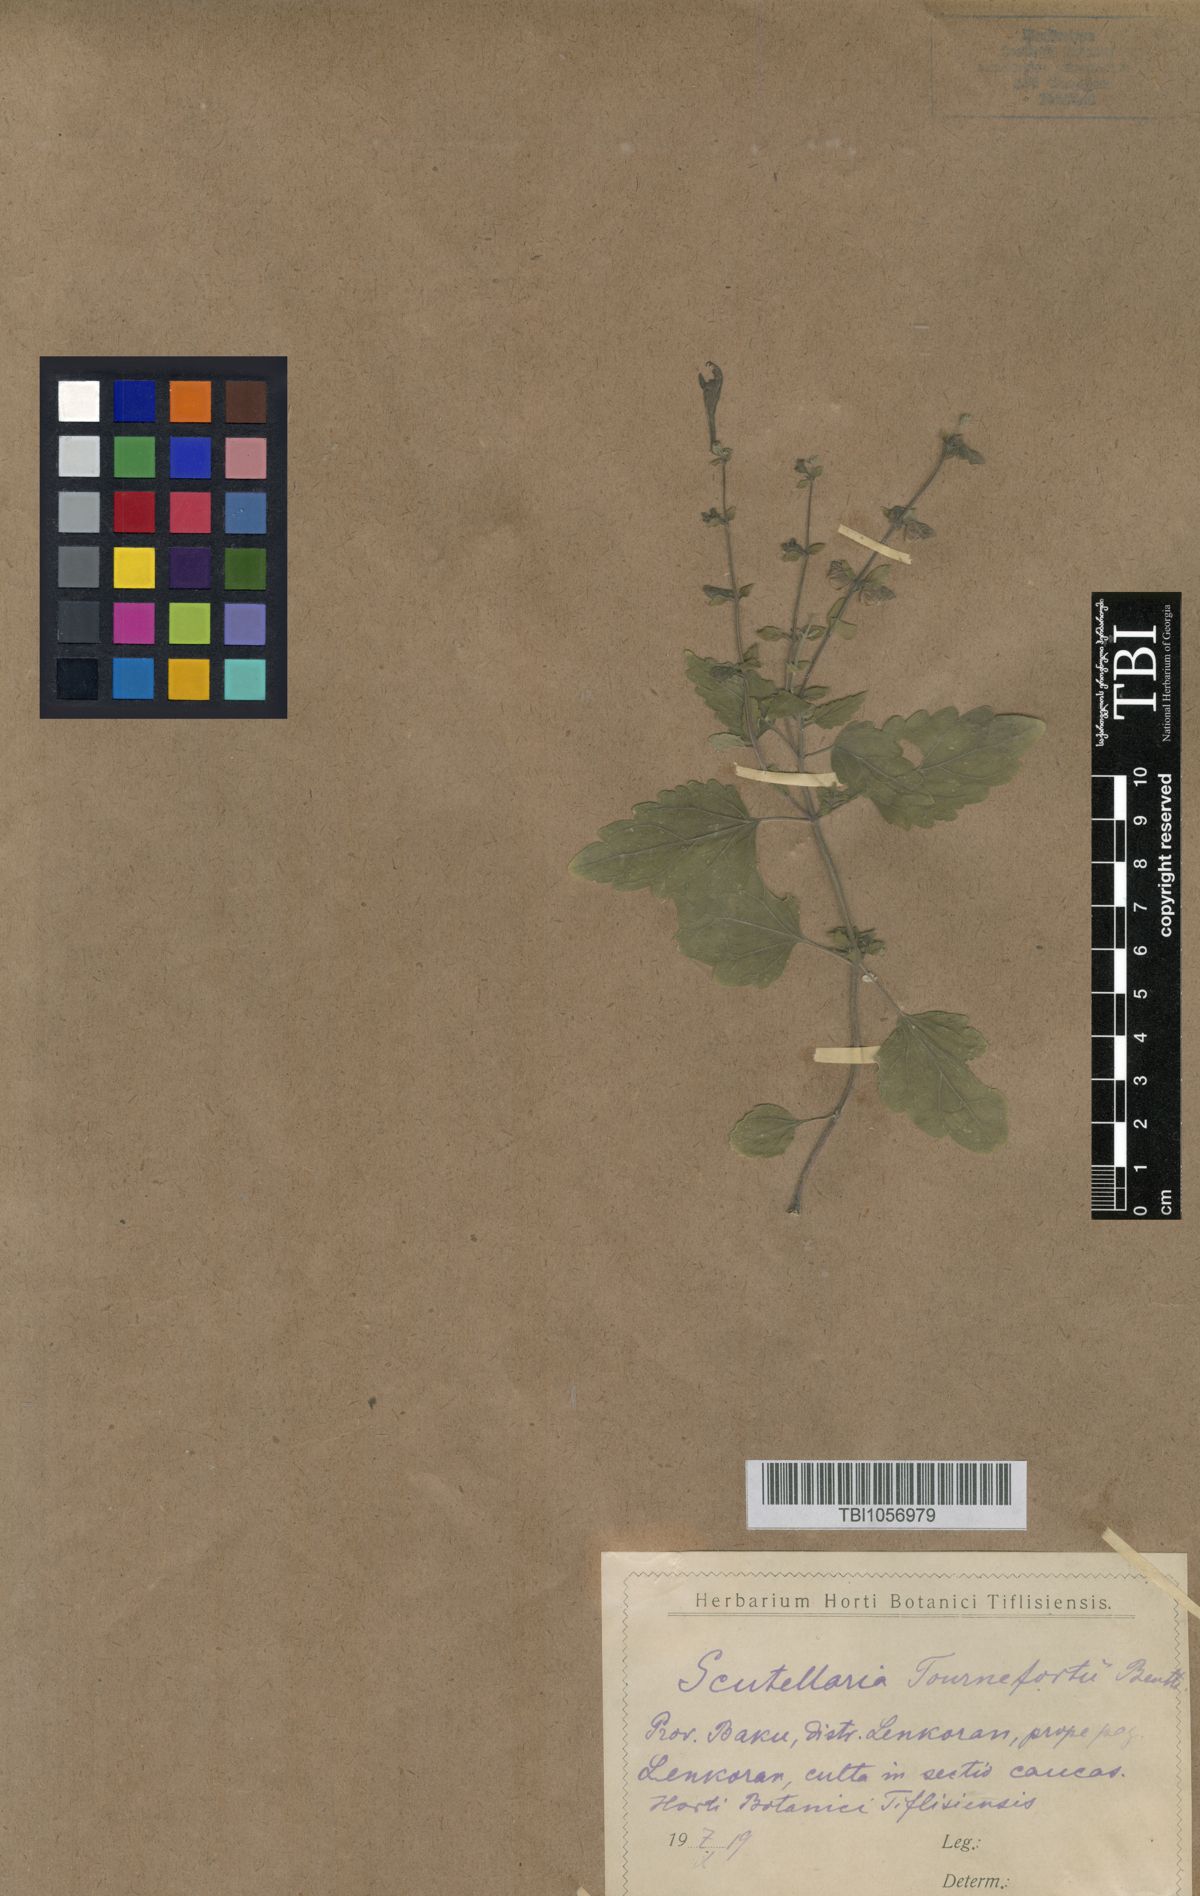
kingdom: Plantae
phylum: Tracheophyta
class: Magnoliopsida
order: Lamiales
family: Lamiaceae
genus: Scutellaria
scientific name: Scutellaria tournefortii
